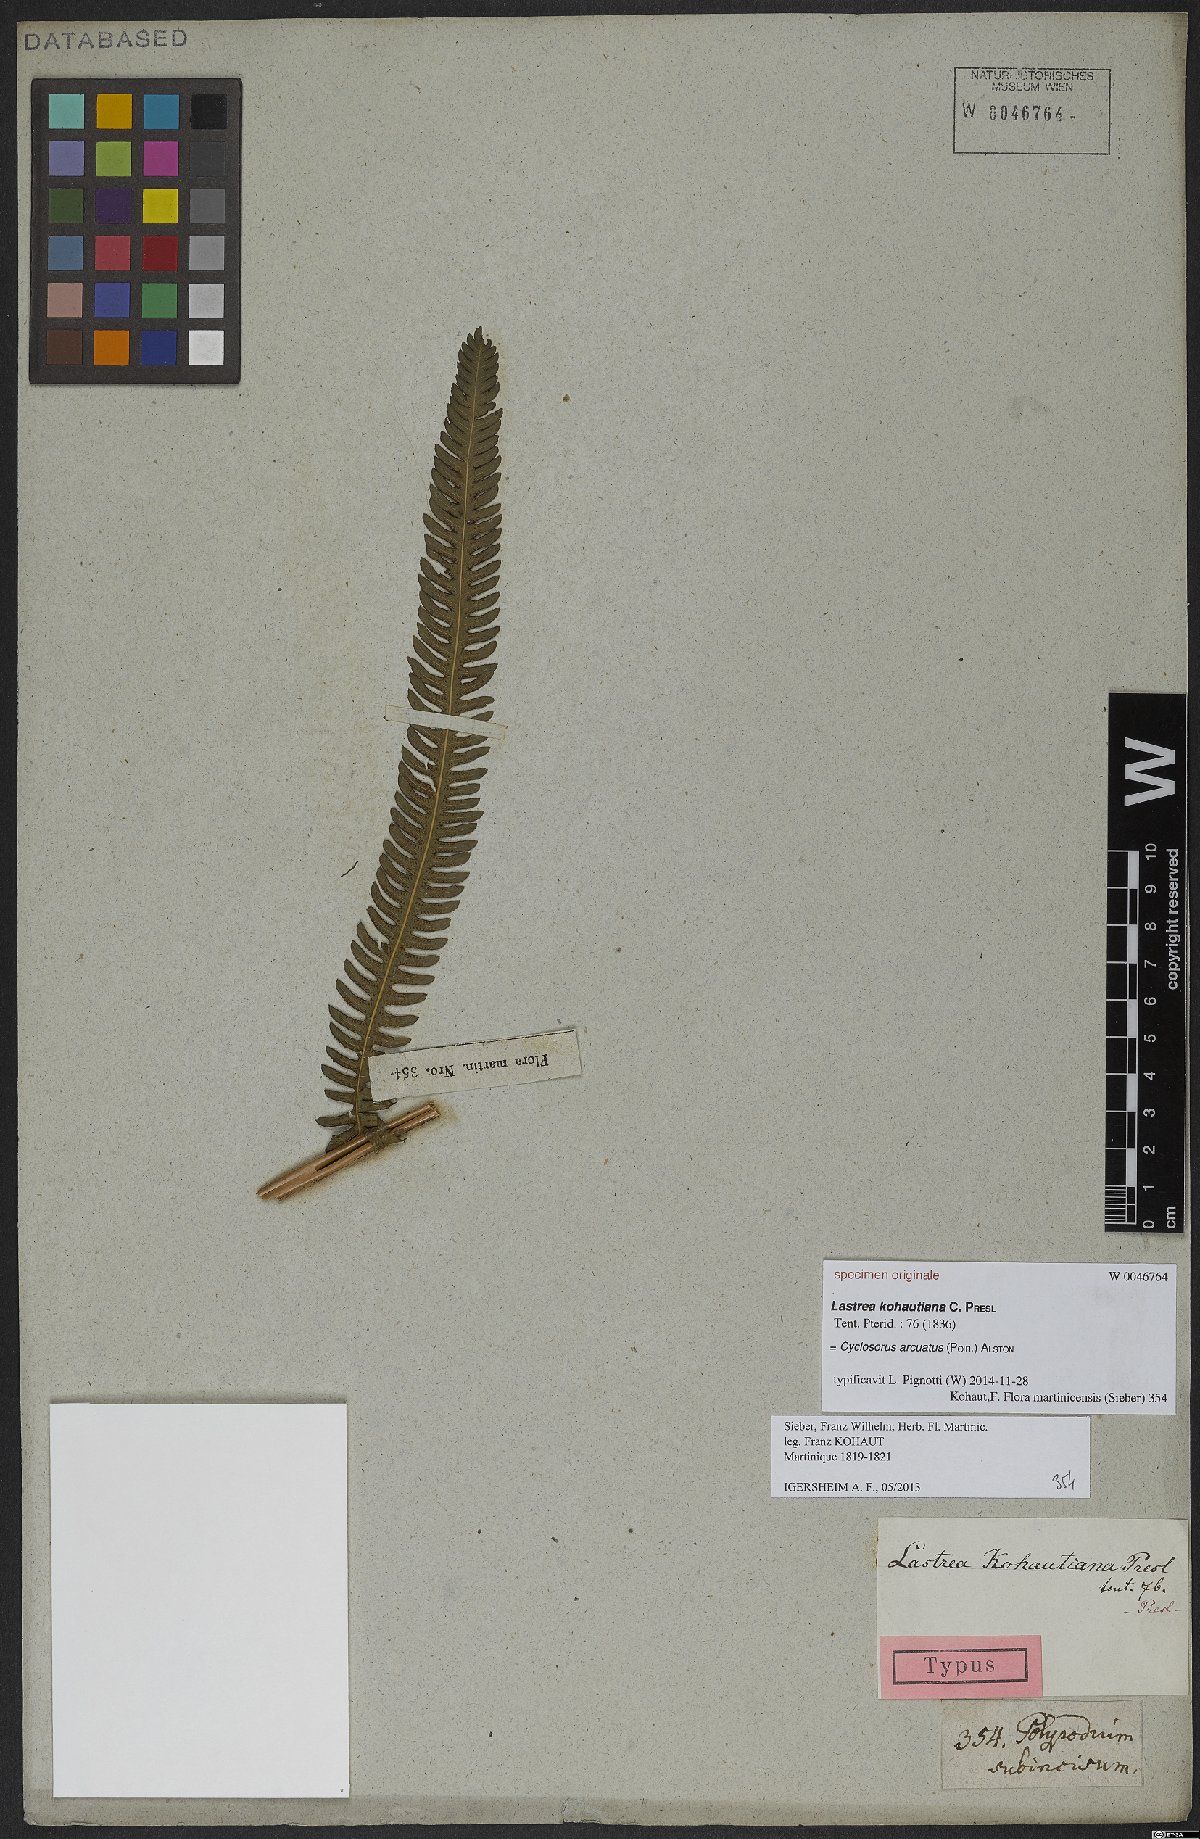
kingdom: Plantae
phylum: Tracheophyta
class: Polypodiopsida
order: Polypodiales
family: Pteridaceae
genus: Adiantum
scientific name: Adiantum philippense
